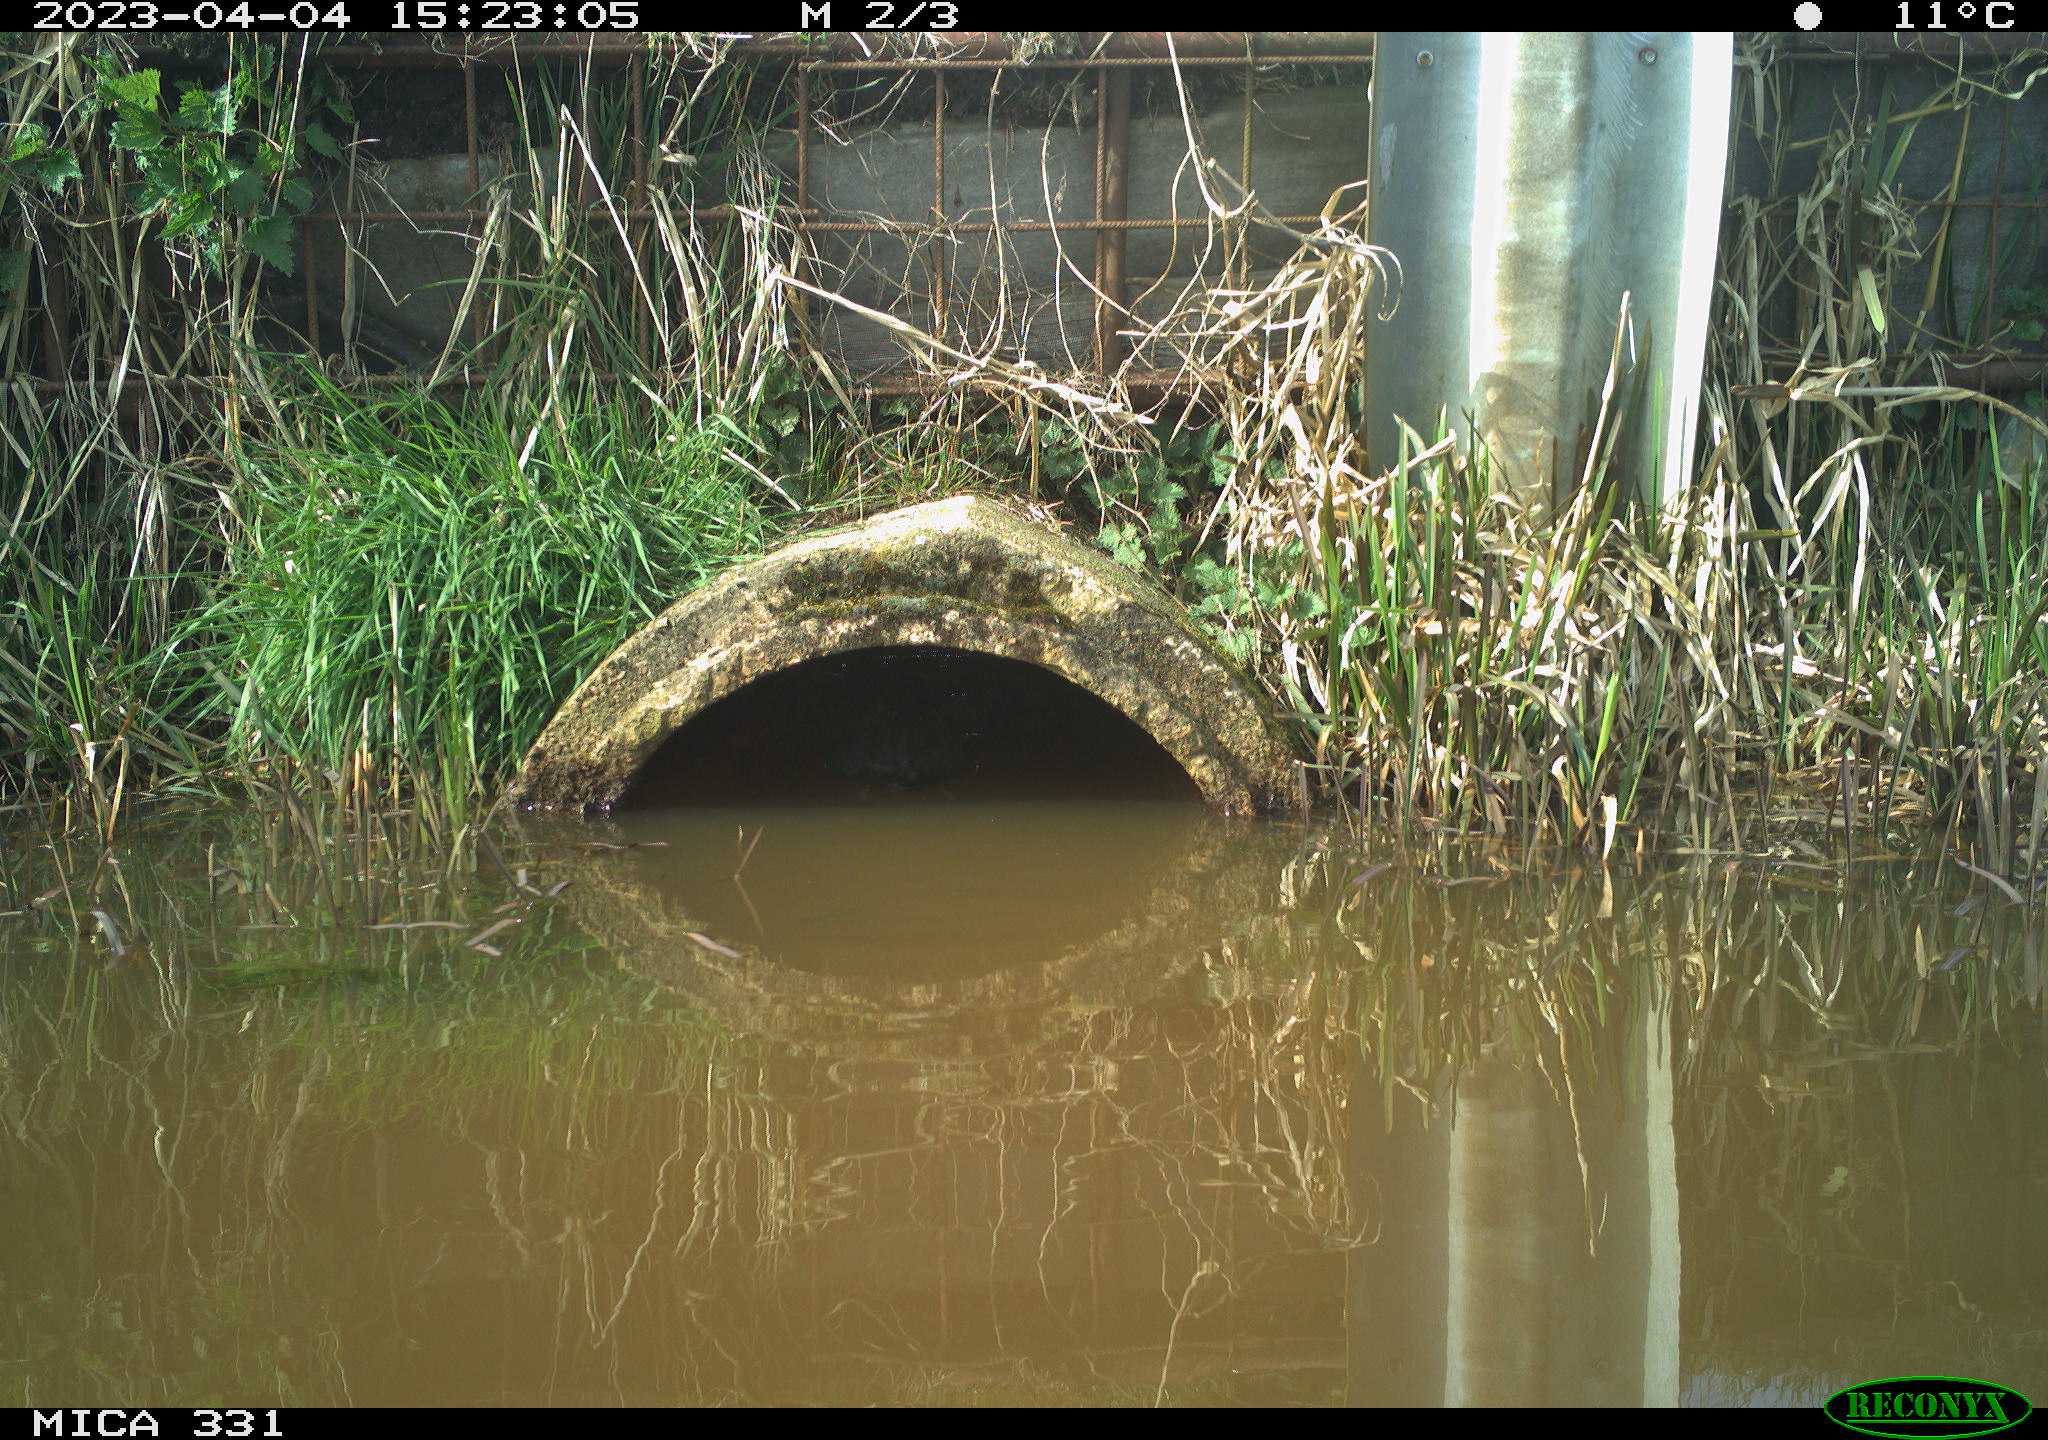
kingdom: Animalia
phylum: Chordata
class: Aves
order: Gruiformes
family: Rallidae
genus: Fulica
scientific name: Fulica atra
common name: Eurasian coot
